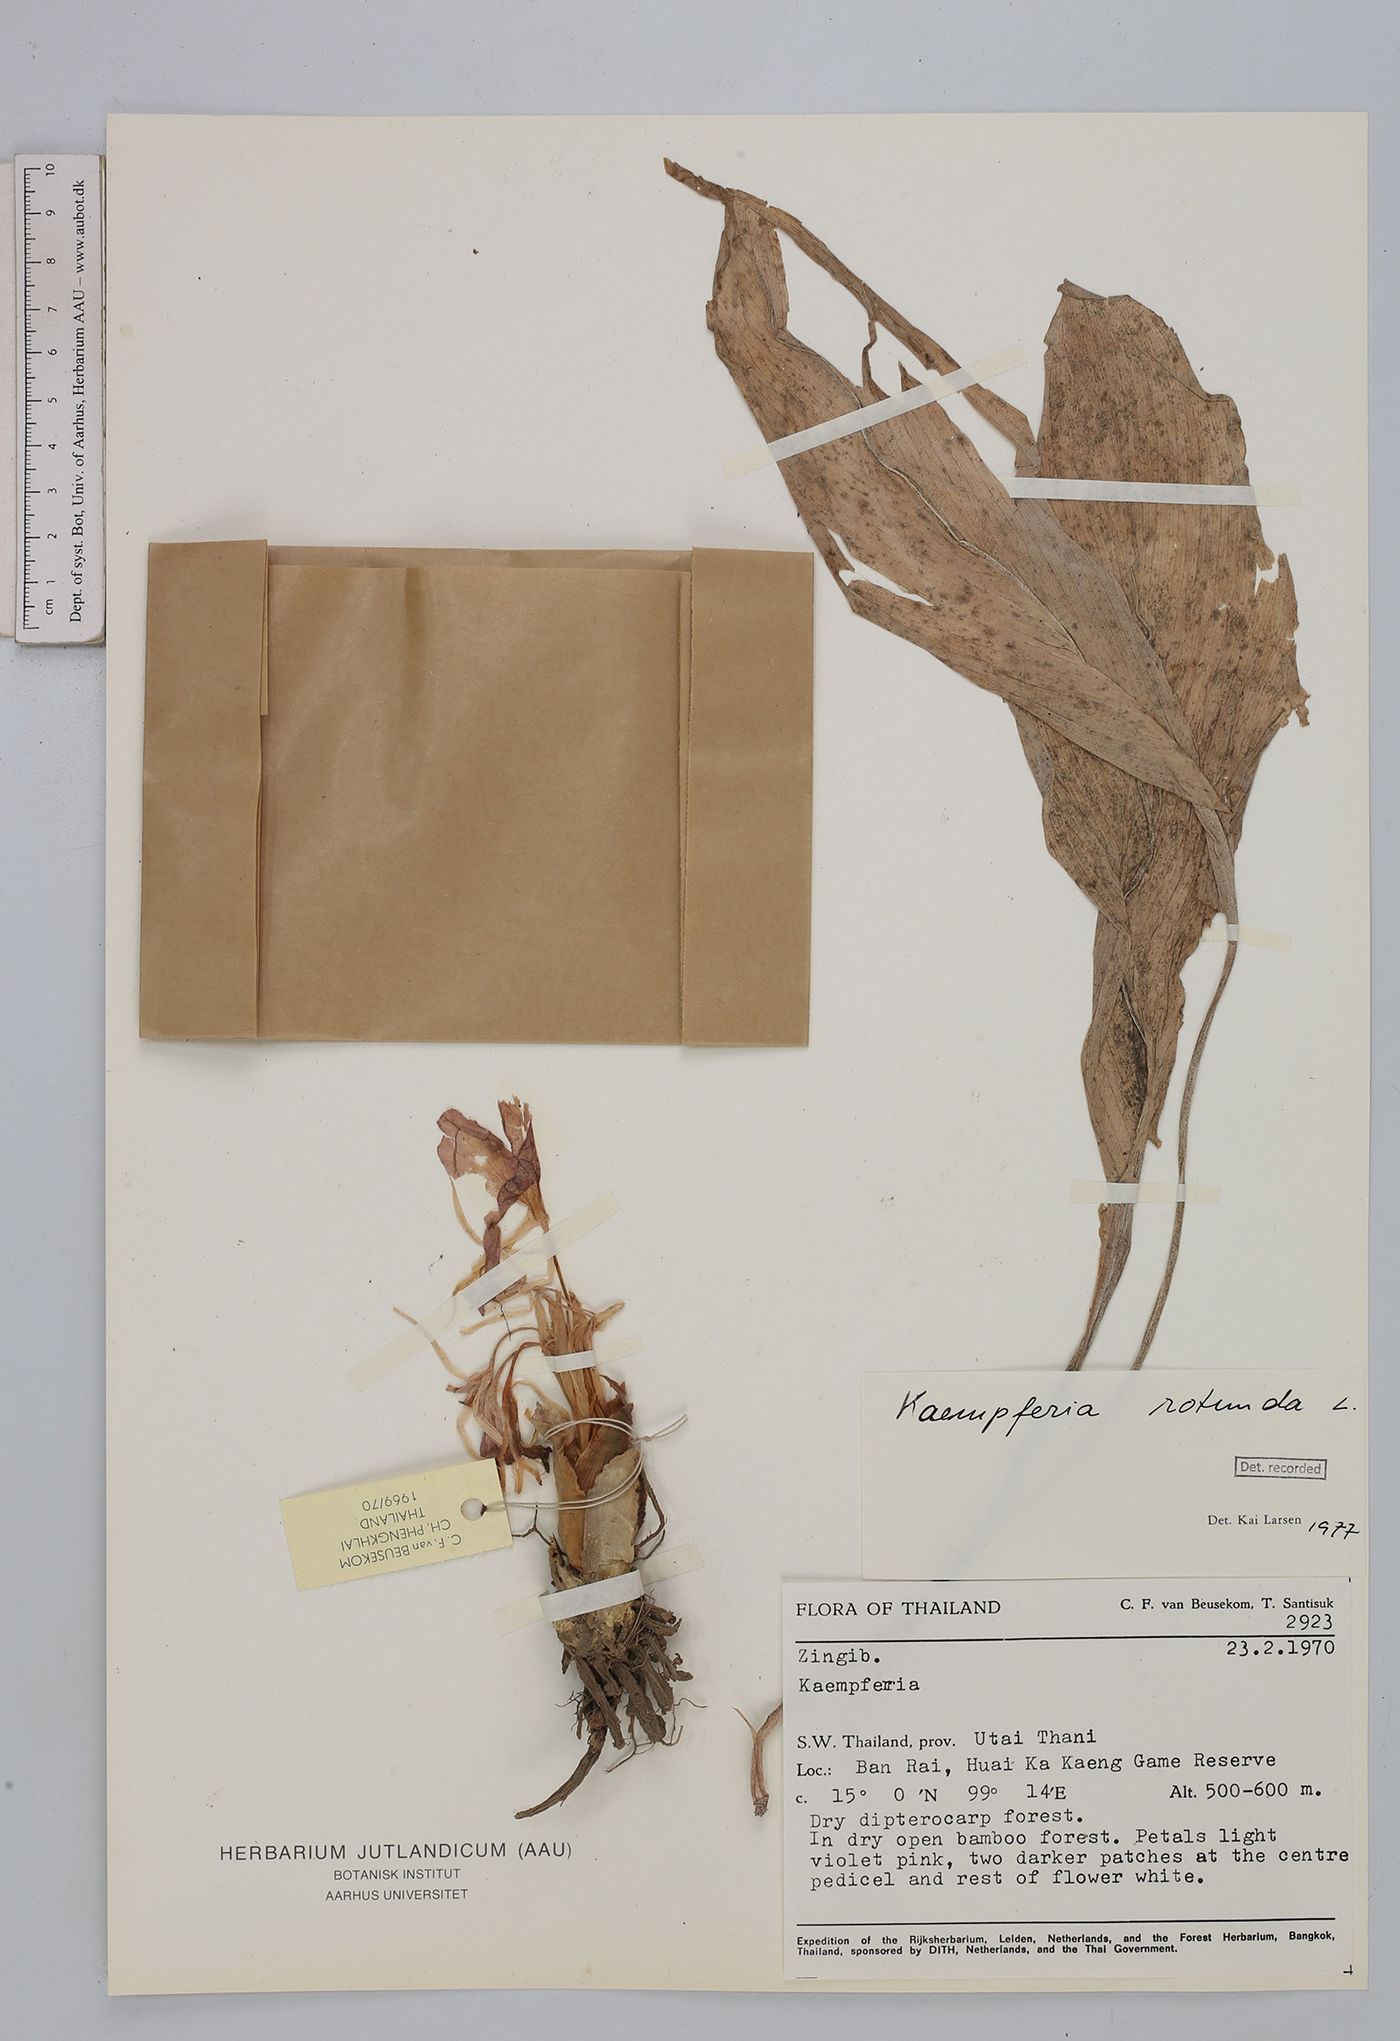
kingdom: Plantae
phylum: Tracheophyta
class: Liliopsida
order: Zingiberales
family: Zingiberaceae
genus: Kaempferia
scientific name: Kaempferia rotunda
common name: Tropical-crocus
